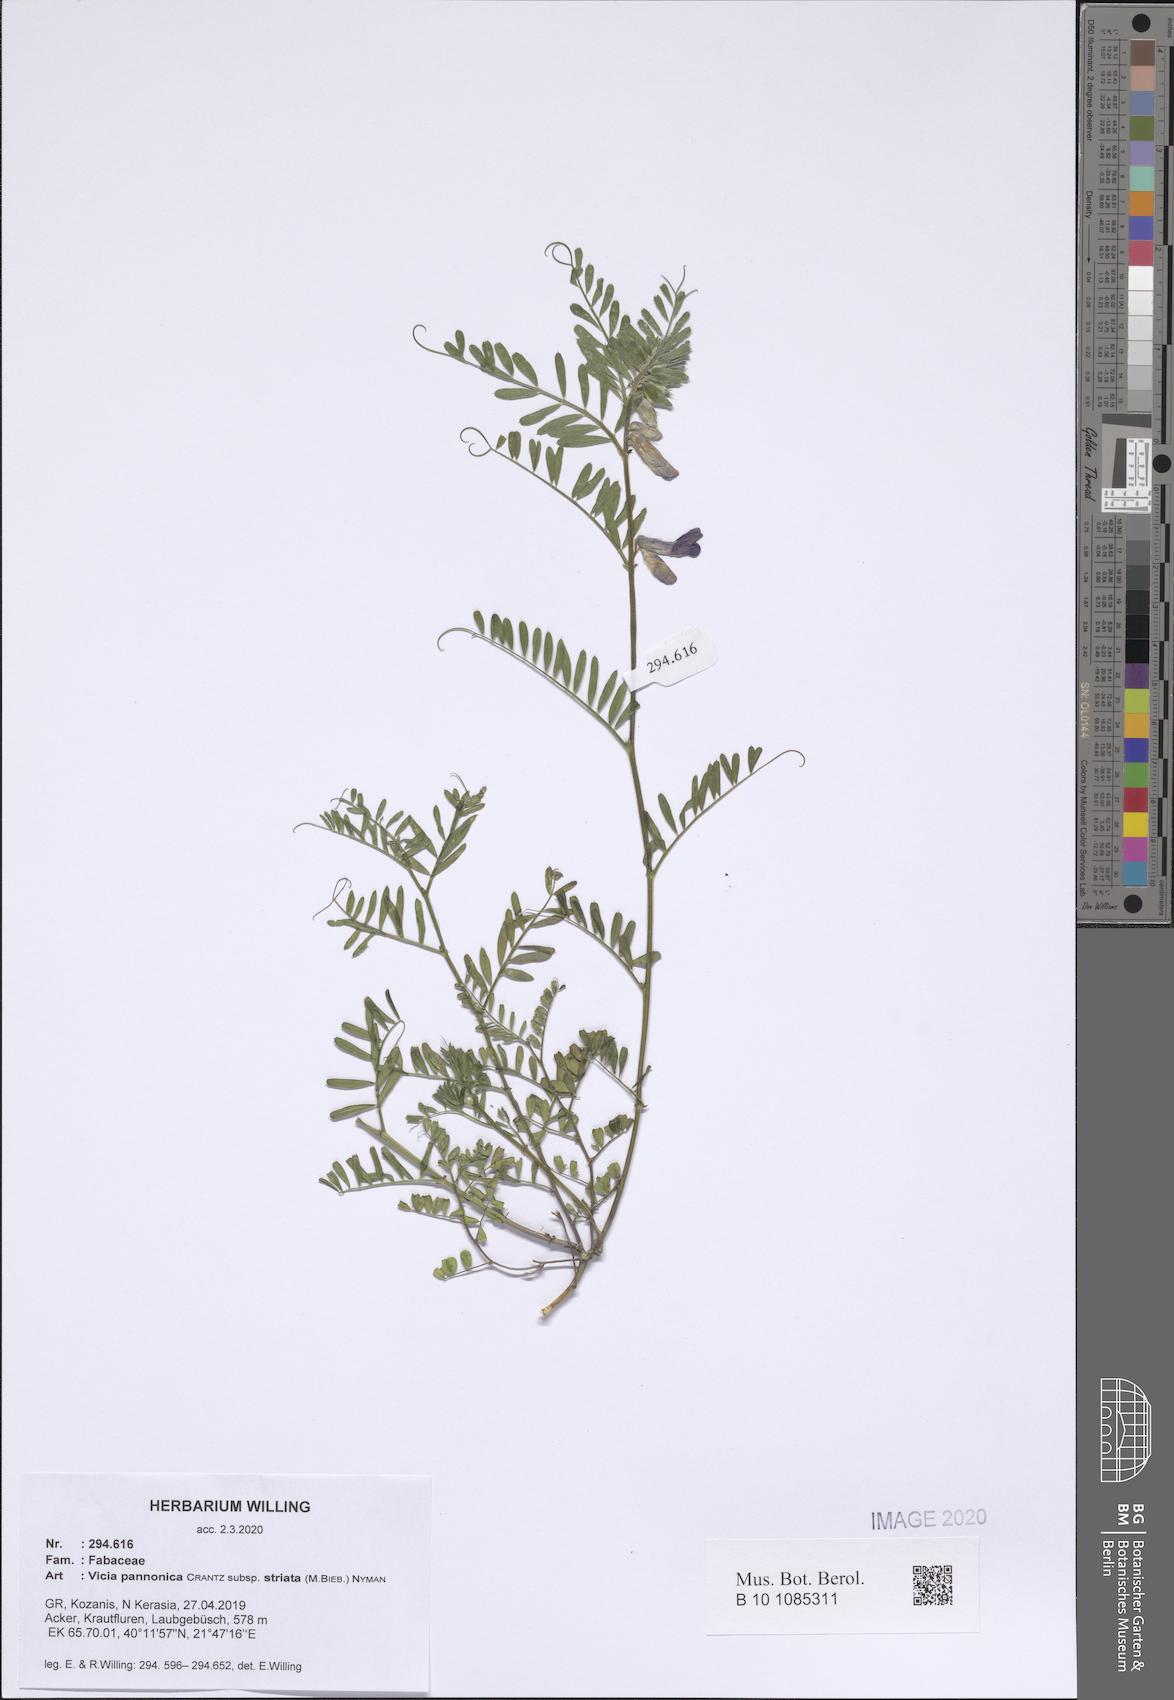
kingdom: Plantae
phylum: Tracheophyta
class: Magnoliopsida
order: Fabales
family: Fabaceae
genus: Vicia
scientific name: Vicia pannonica
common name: Hungarian vetch
